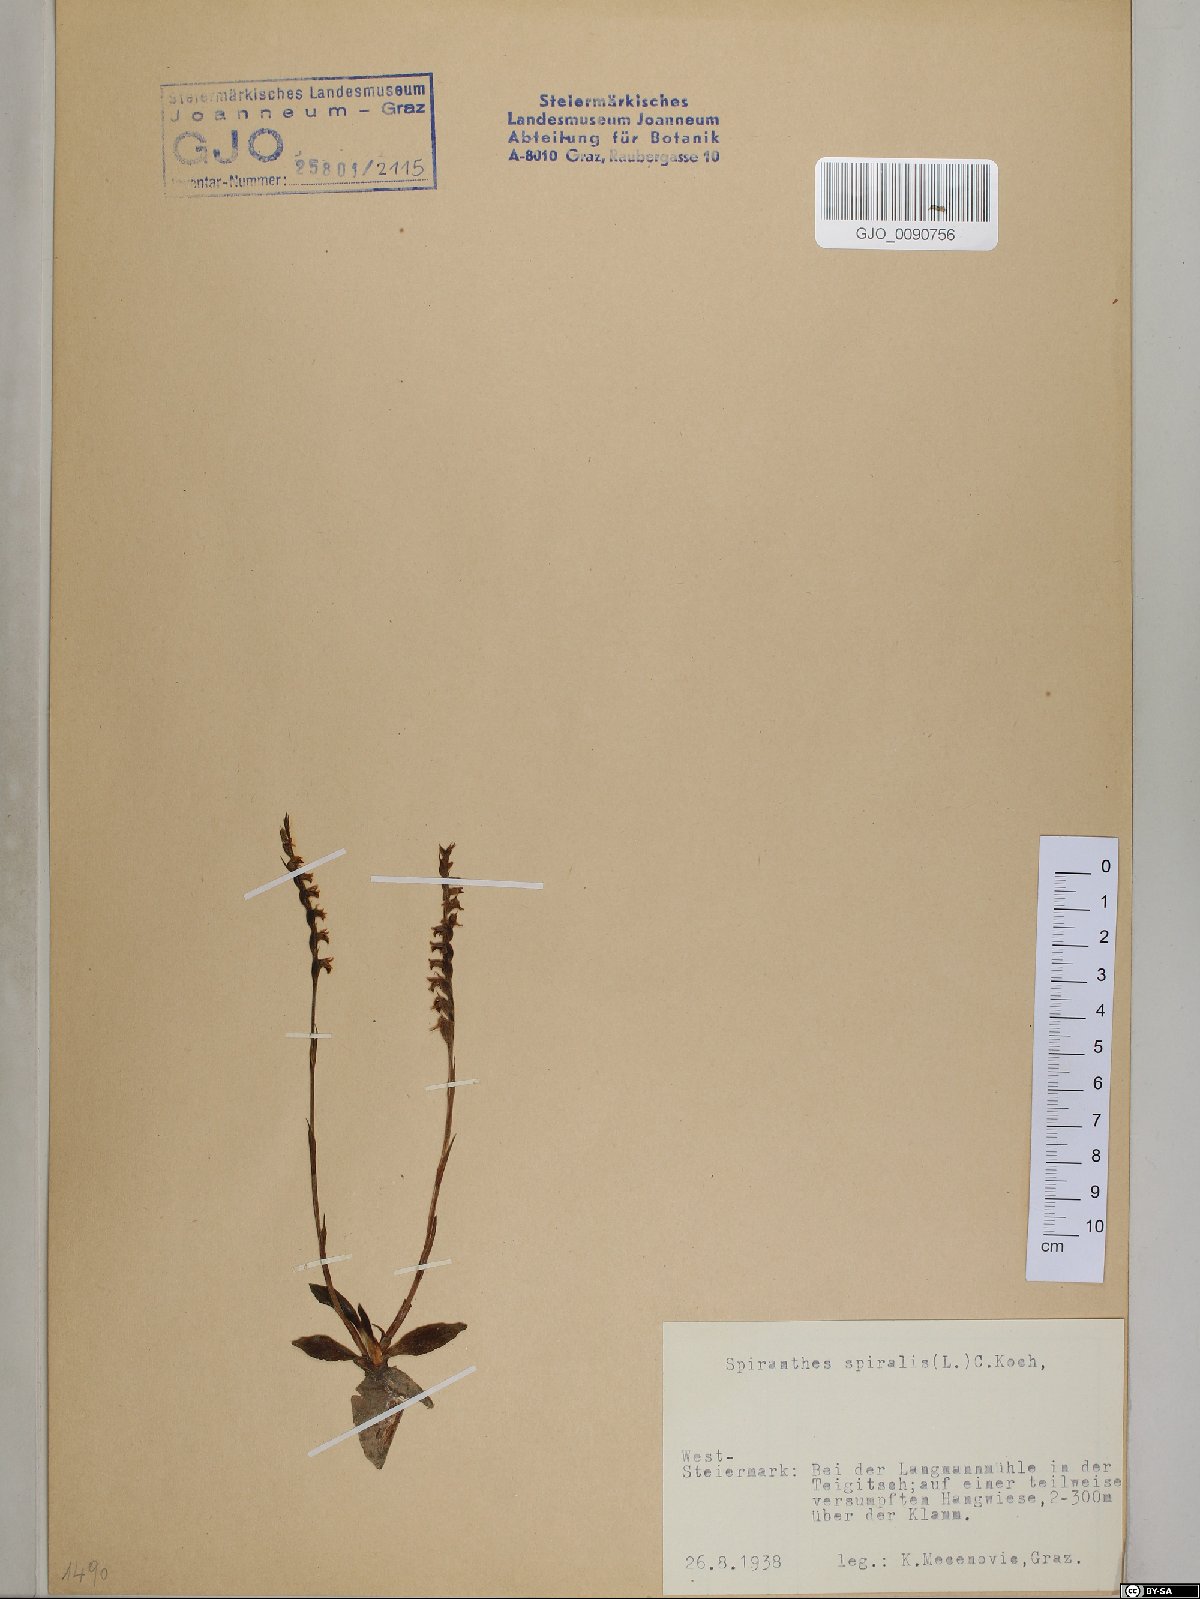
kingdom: Plantae
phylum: Tracheophyta
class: Liliopsida
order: Asparagales
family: Orchidaceae
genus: Spiranthes
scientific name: Spiranthes spiralis
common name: Autumn lady's-tresses
